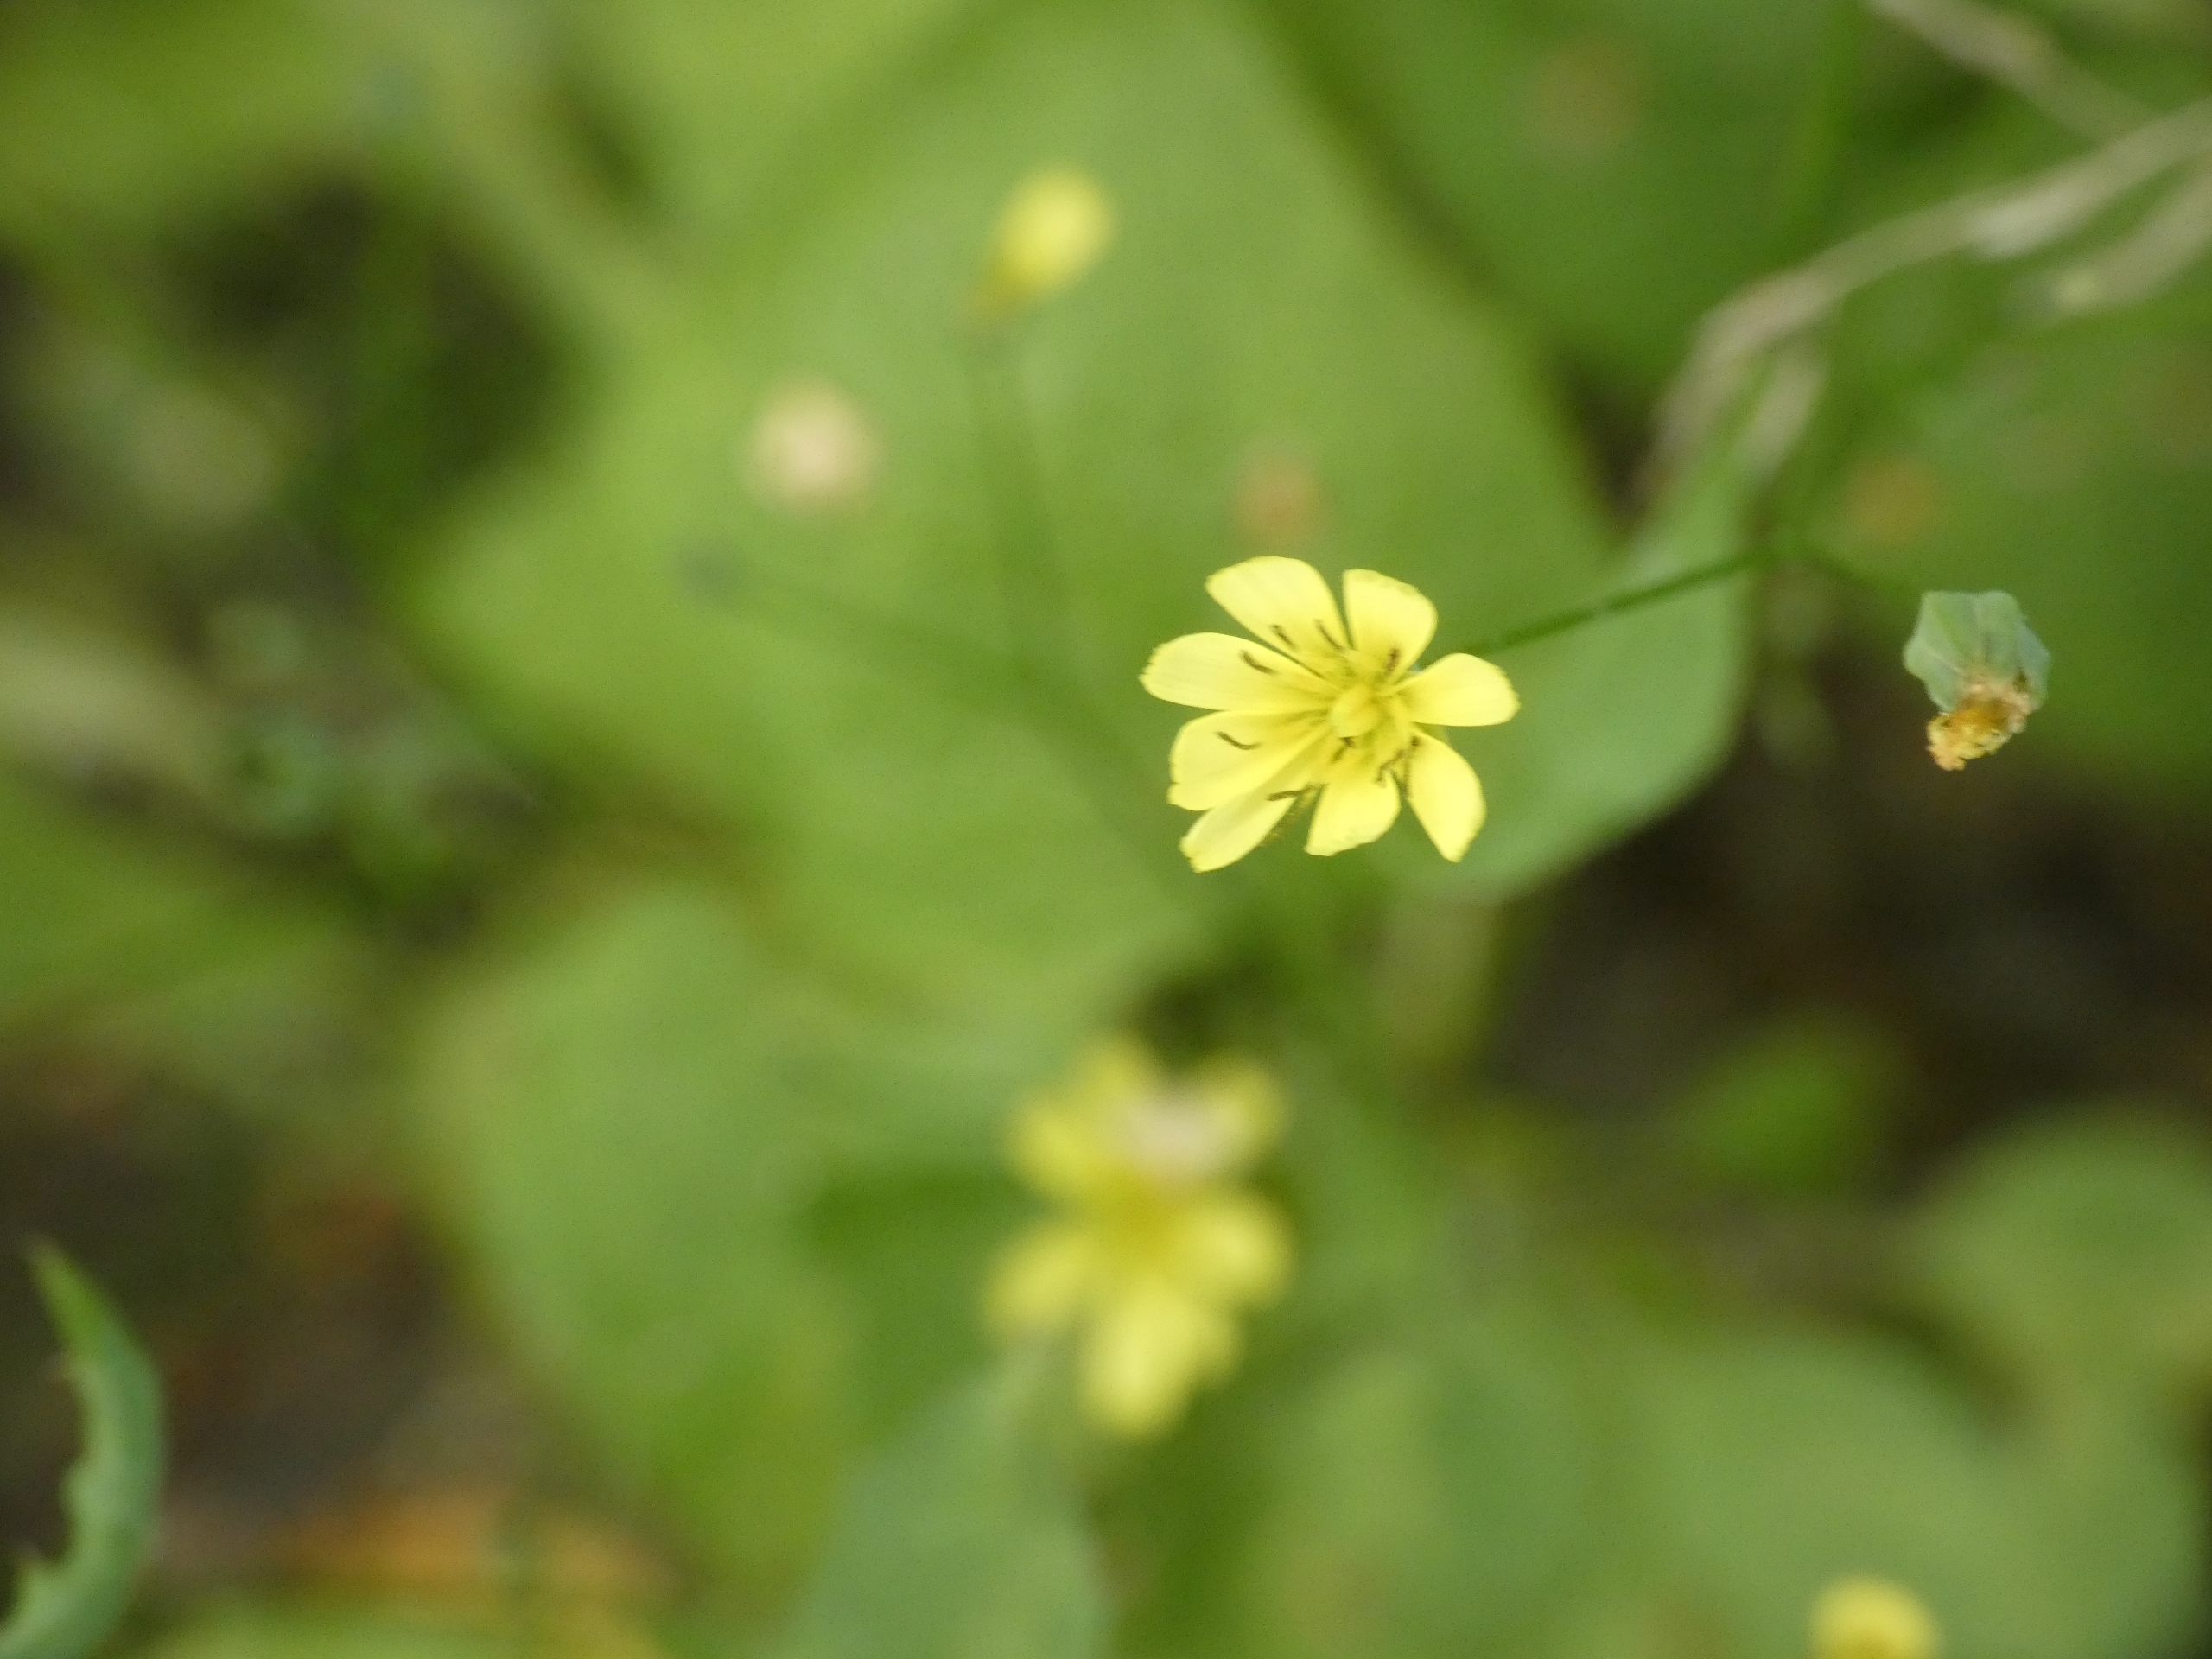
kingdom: Plantae
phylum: Tracheophyta
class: Magnoliopsida
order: Asterales
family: Asteraceae
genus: Lapsana
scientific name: Lapsana communis
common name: Haremad
